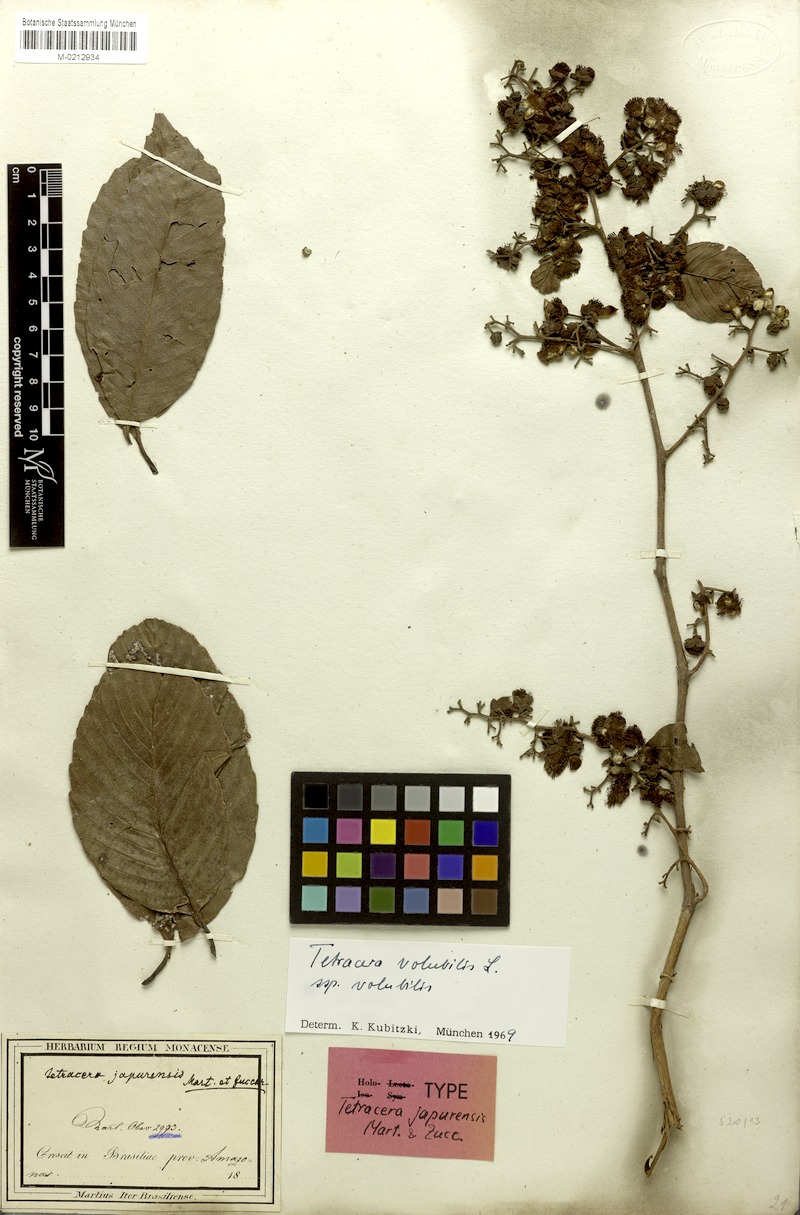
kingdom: Plantae
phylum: Tracheophyta
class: Magnoliopsida
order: Dilleniales
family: Dilleniaceae
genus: Tetracera
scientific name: Tetracera volubilis
